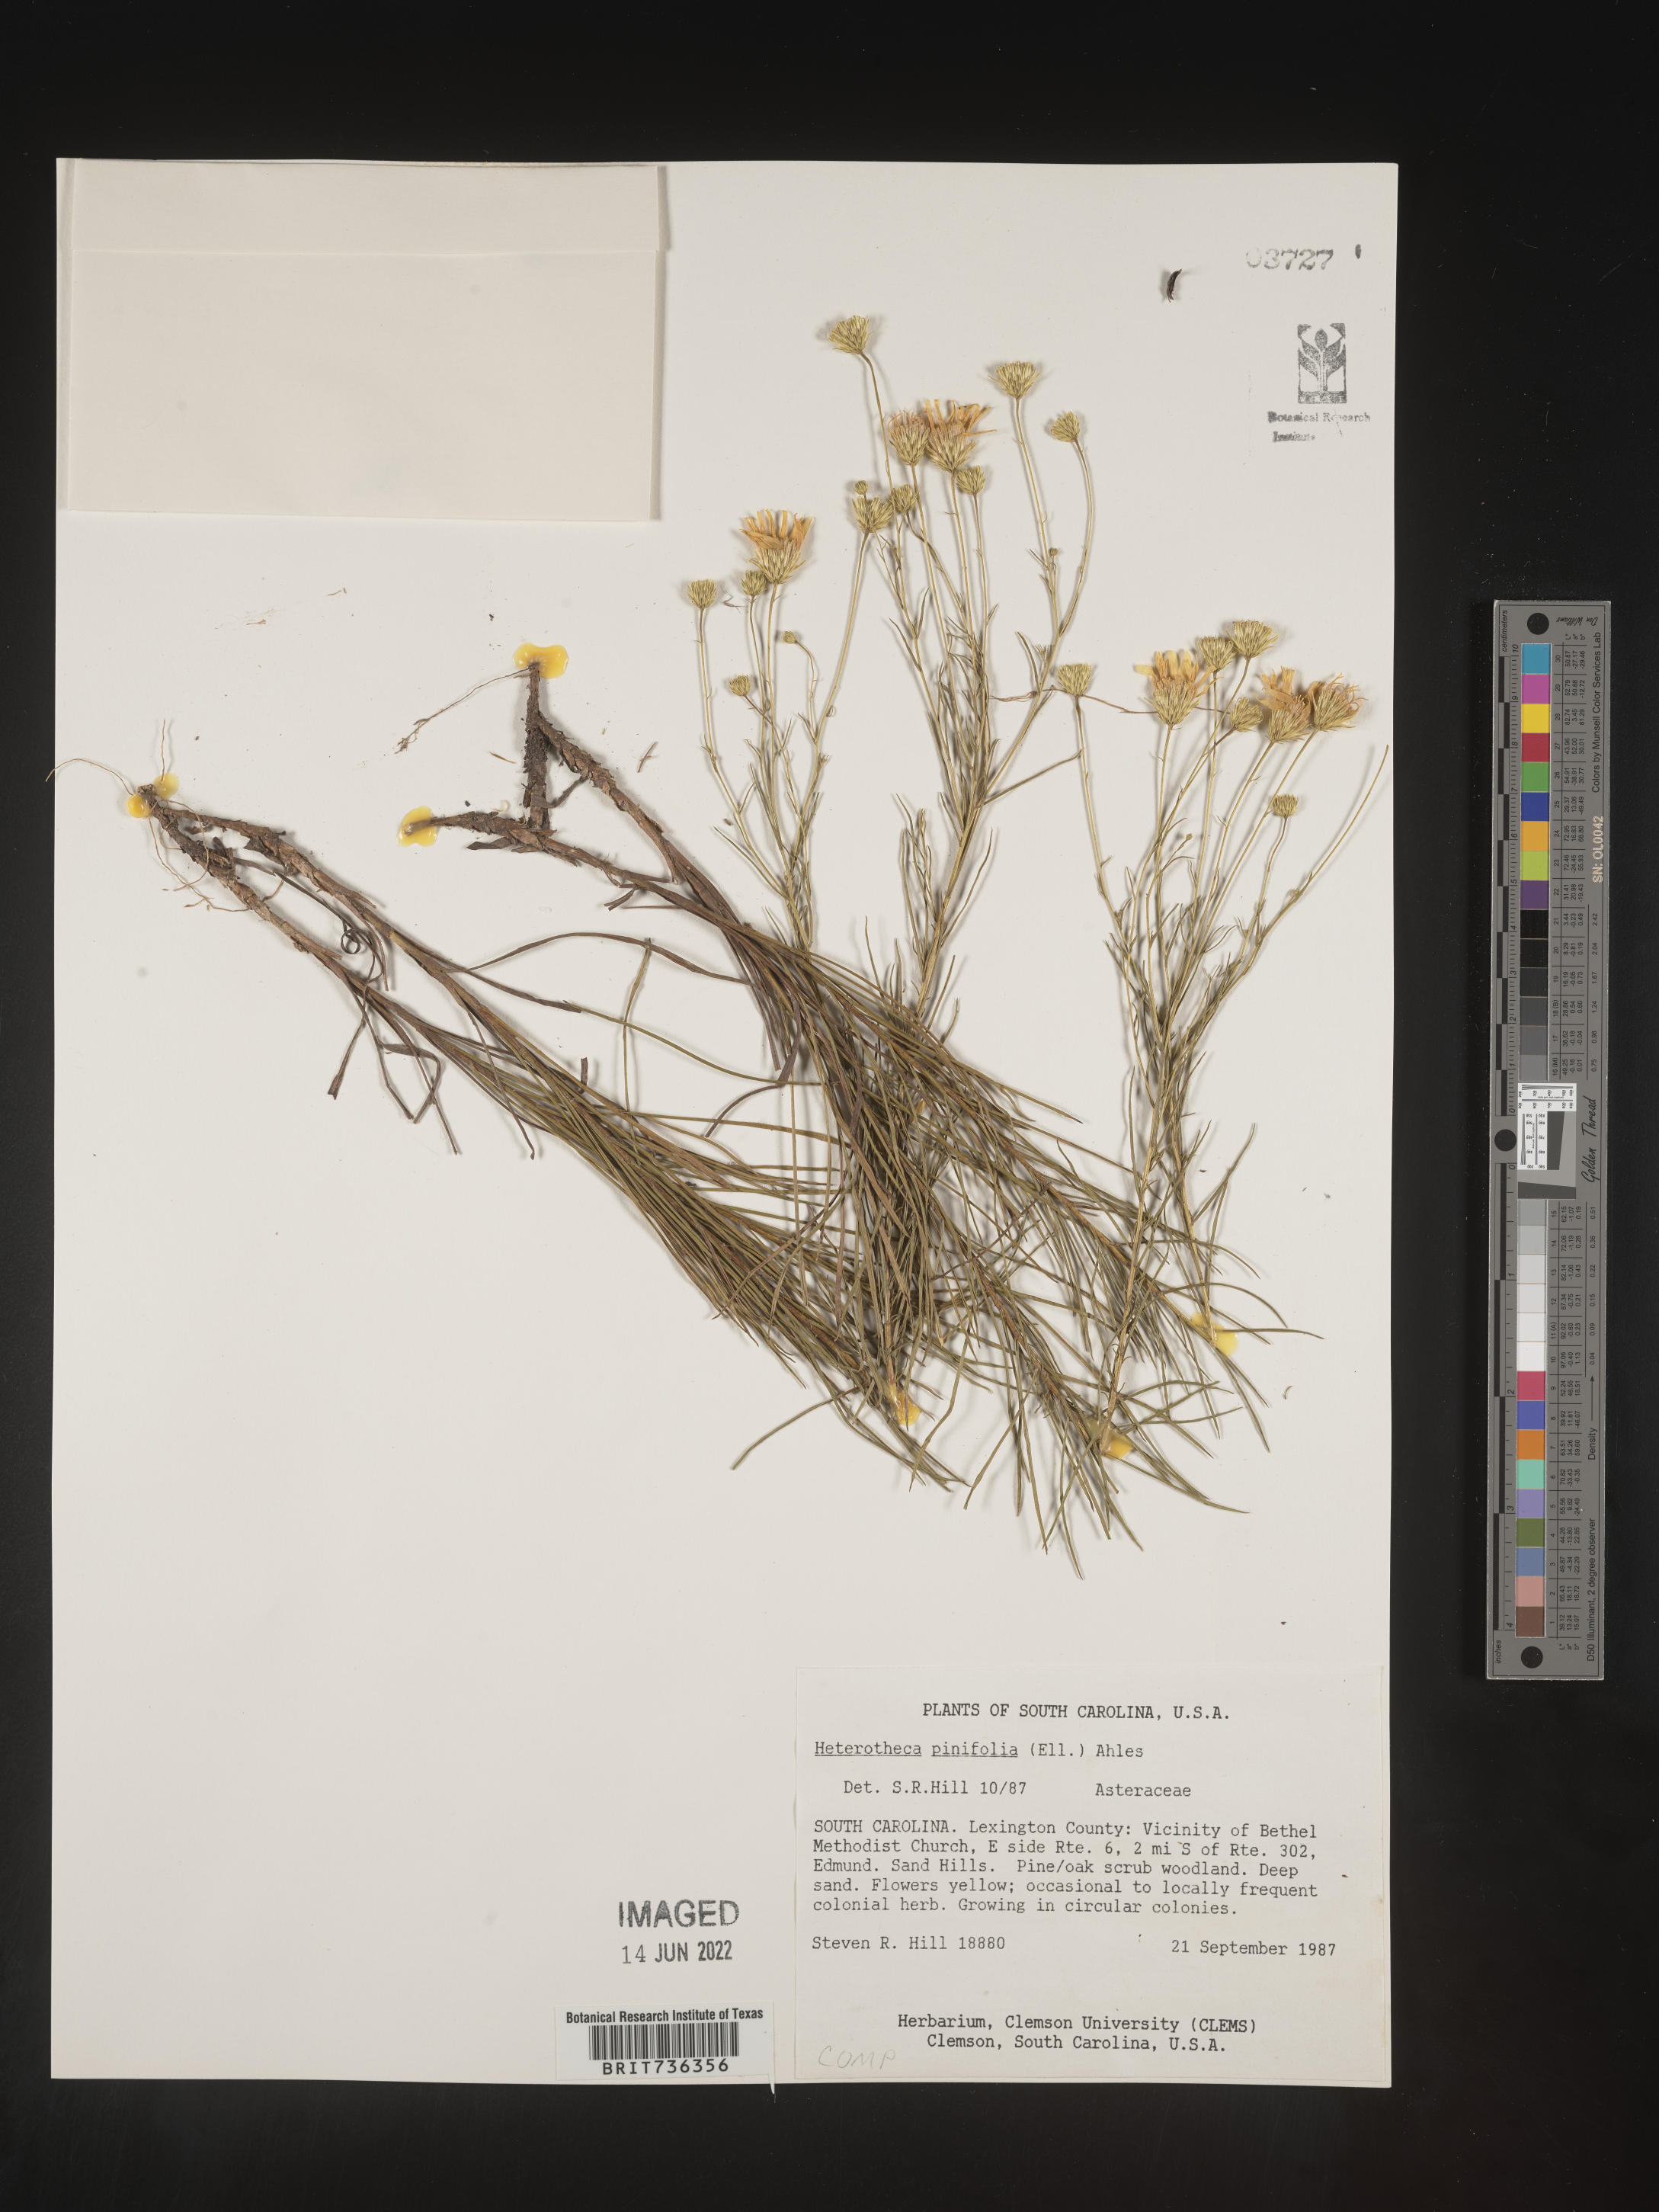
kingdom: Plantae
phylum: Tracheophyta
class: Magnoliopsida
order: Asterales
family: Asteraceae
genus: Pityopsis
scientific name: Pityopsis pinifolia
